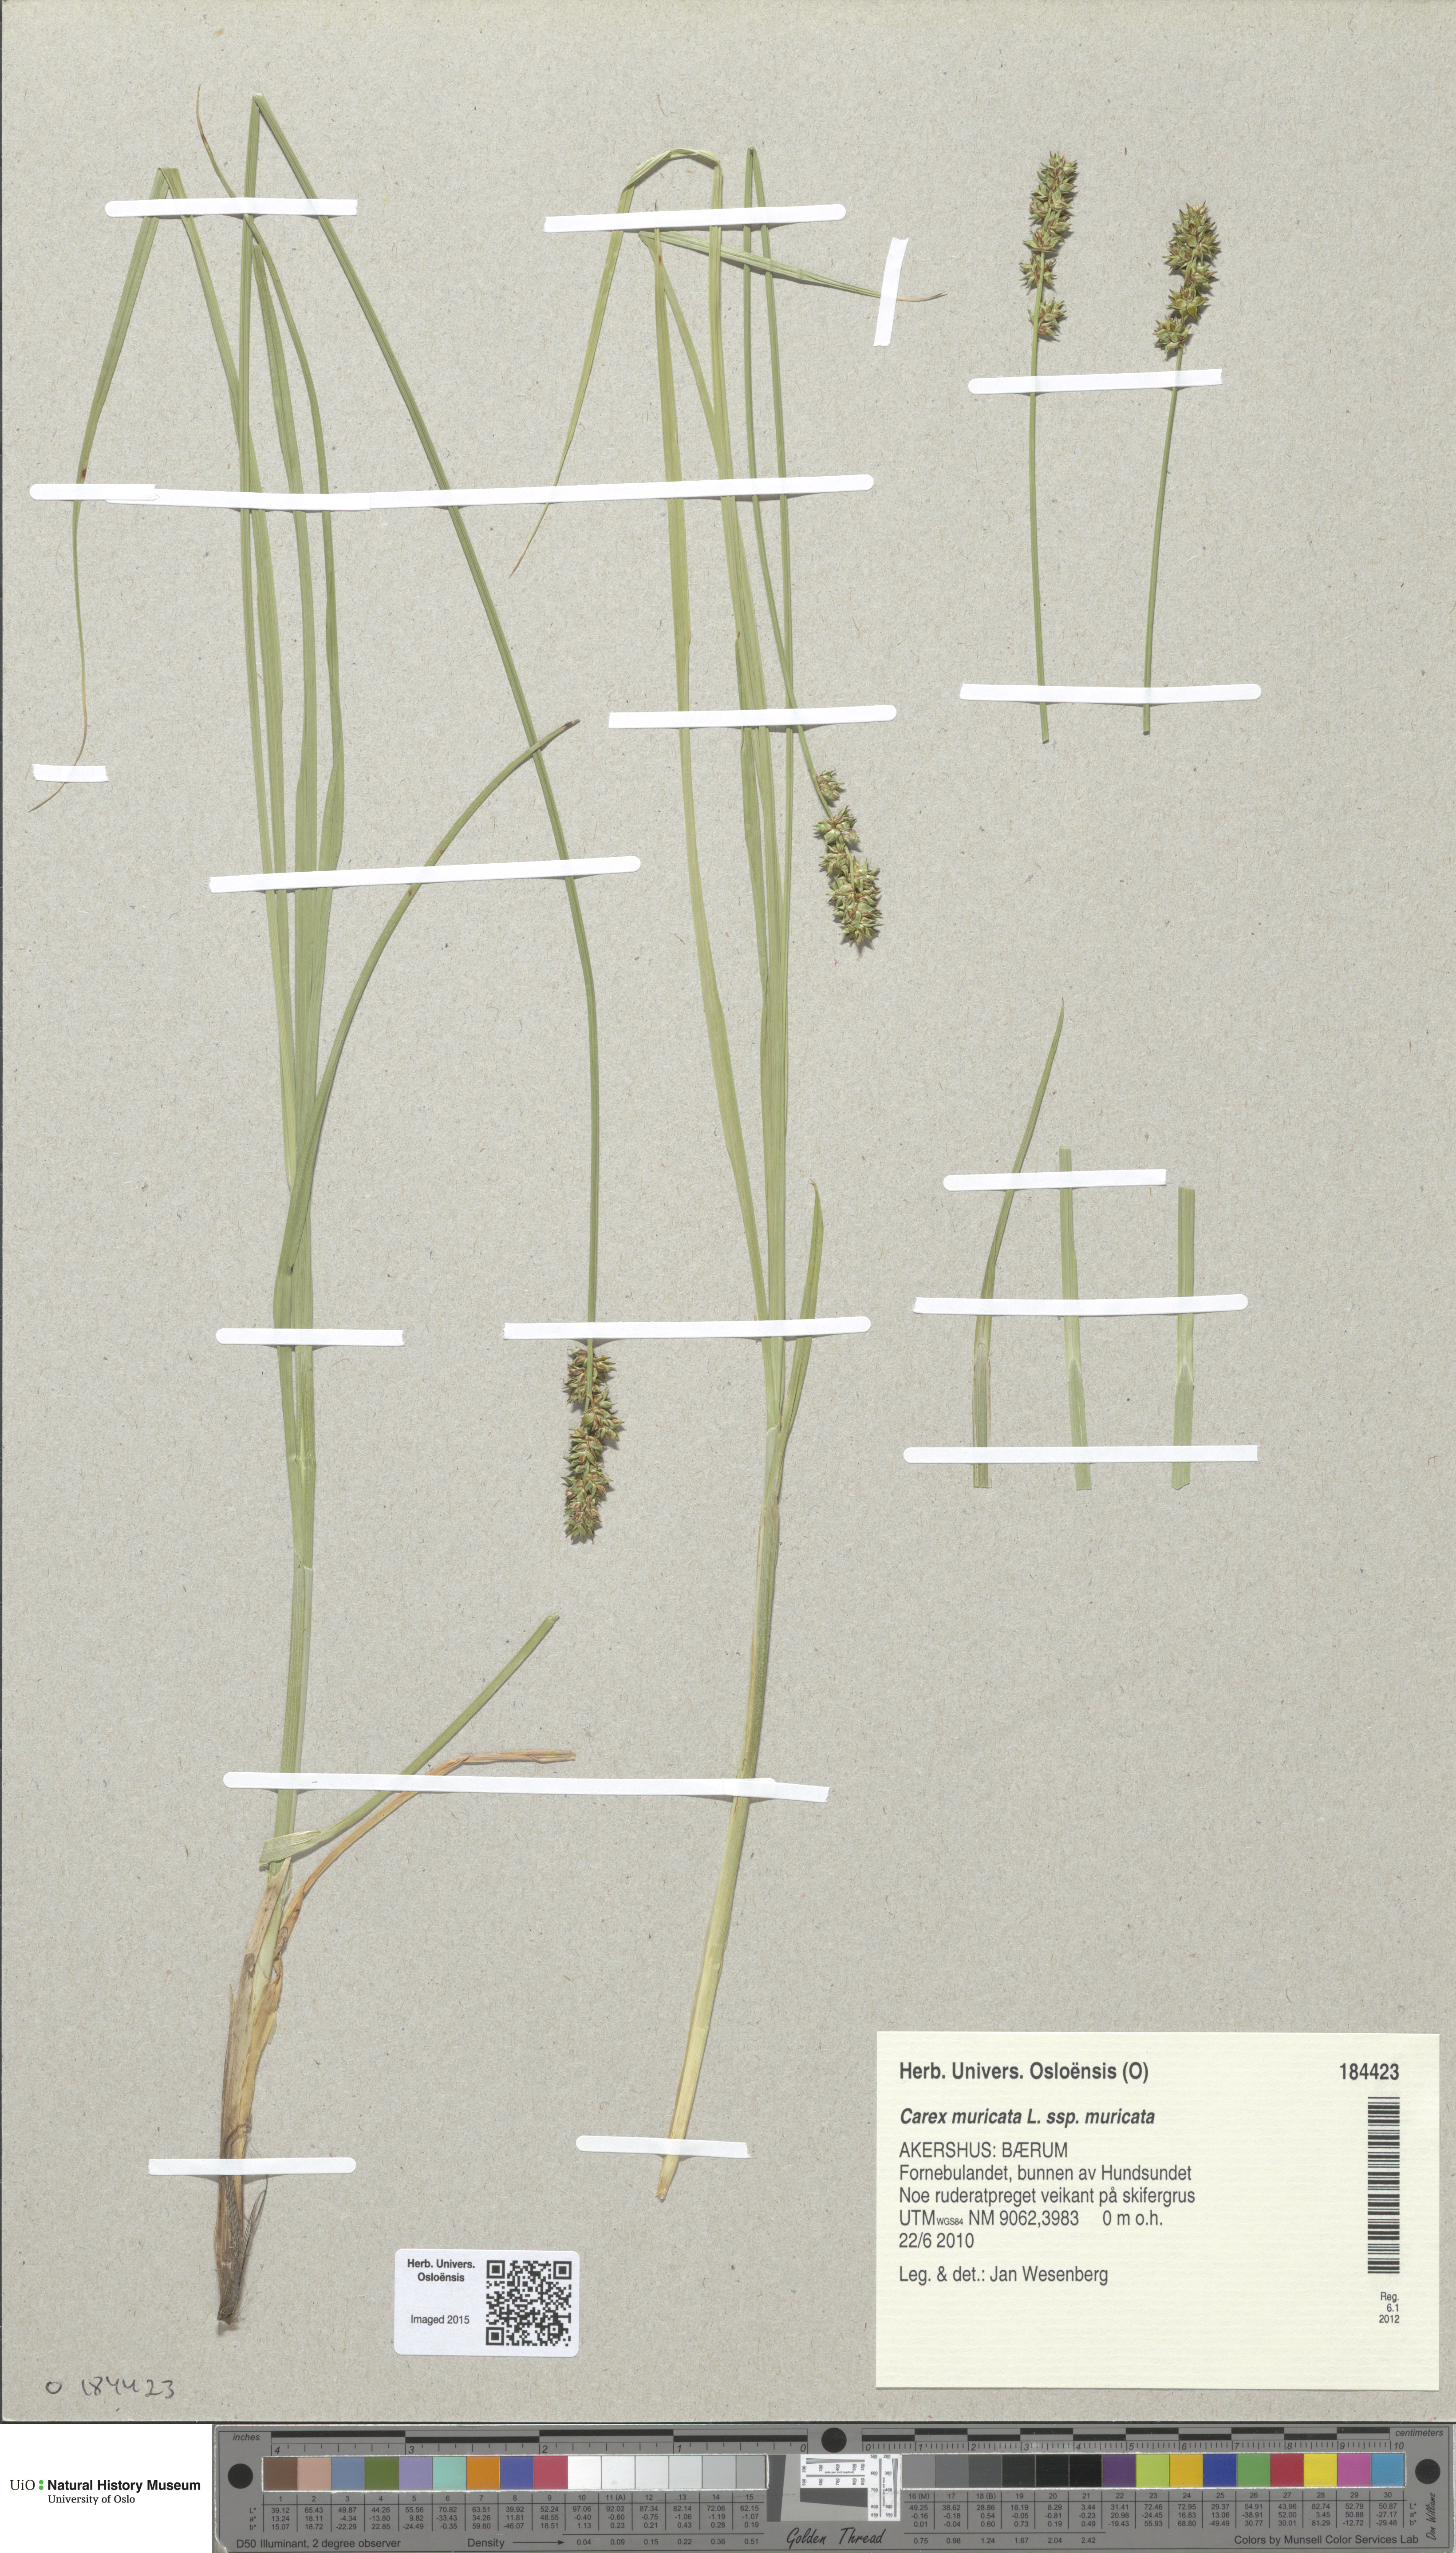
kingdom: Plantae
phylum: Tracheophyta
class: Liliopsida
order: Poales
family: Cyperaceae
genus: Carex
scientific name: Carex muricata
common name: Rough sedge
